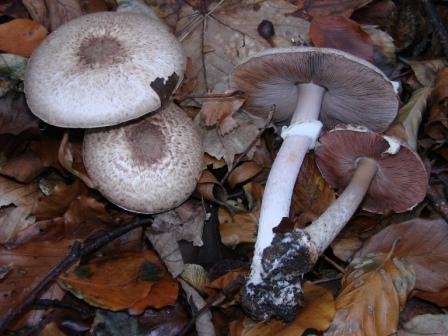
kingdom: Fungi
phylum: Basidiomycota
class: Agaricomycetes
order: Agaricales
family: Agaricaceae
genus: Agaricus
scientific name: Agaricus impudicus
